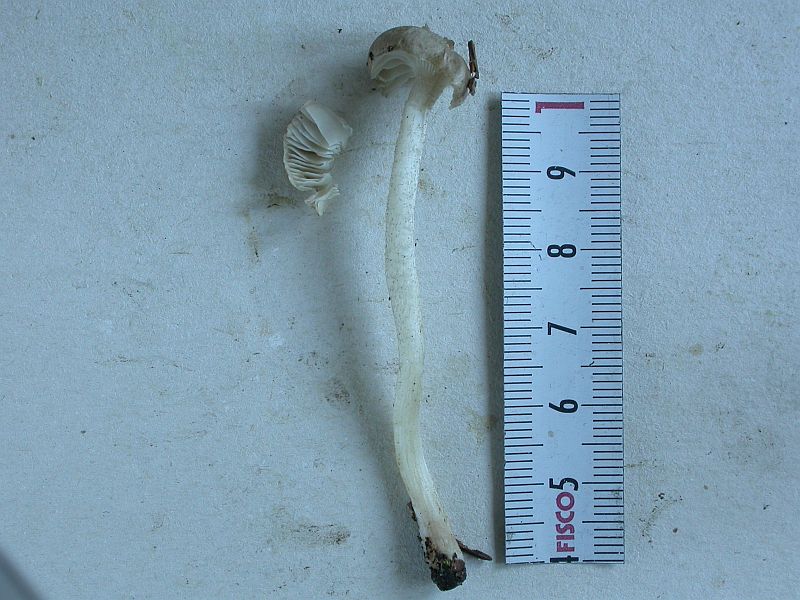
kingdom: Fungi
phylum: Basidiomycota
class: Agaricomycetes
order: Agaricales
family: Hygrophoraceae
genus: Hygrophorus
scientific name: Hygrophorus pustulatus
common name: mørkprikket sneglehat
